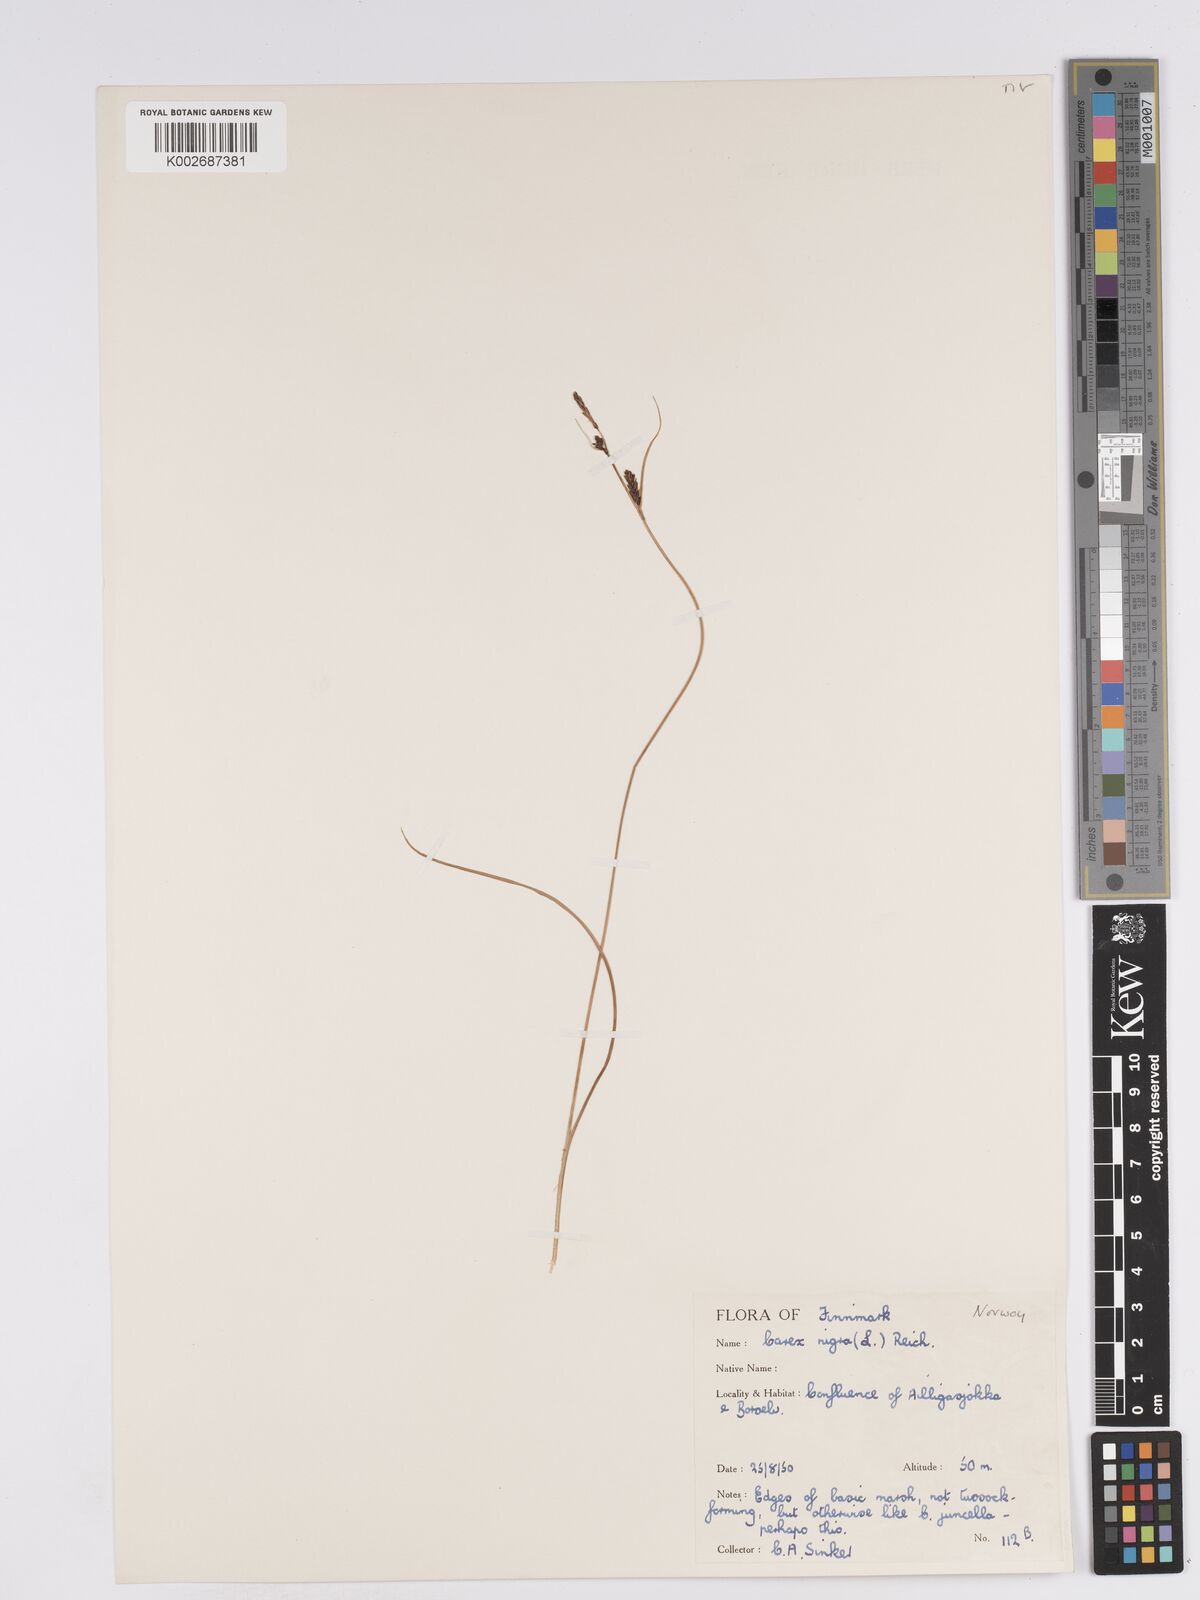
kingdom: Plantae
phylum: Tracheophyta
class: Liliopsida
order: Poales
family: Cyperaceae
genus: Carex
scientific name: Carex nigra
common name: Common sedge
